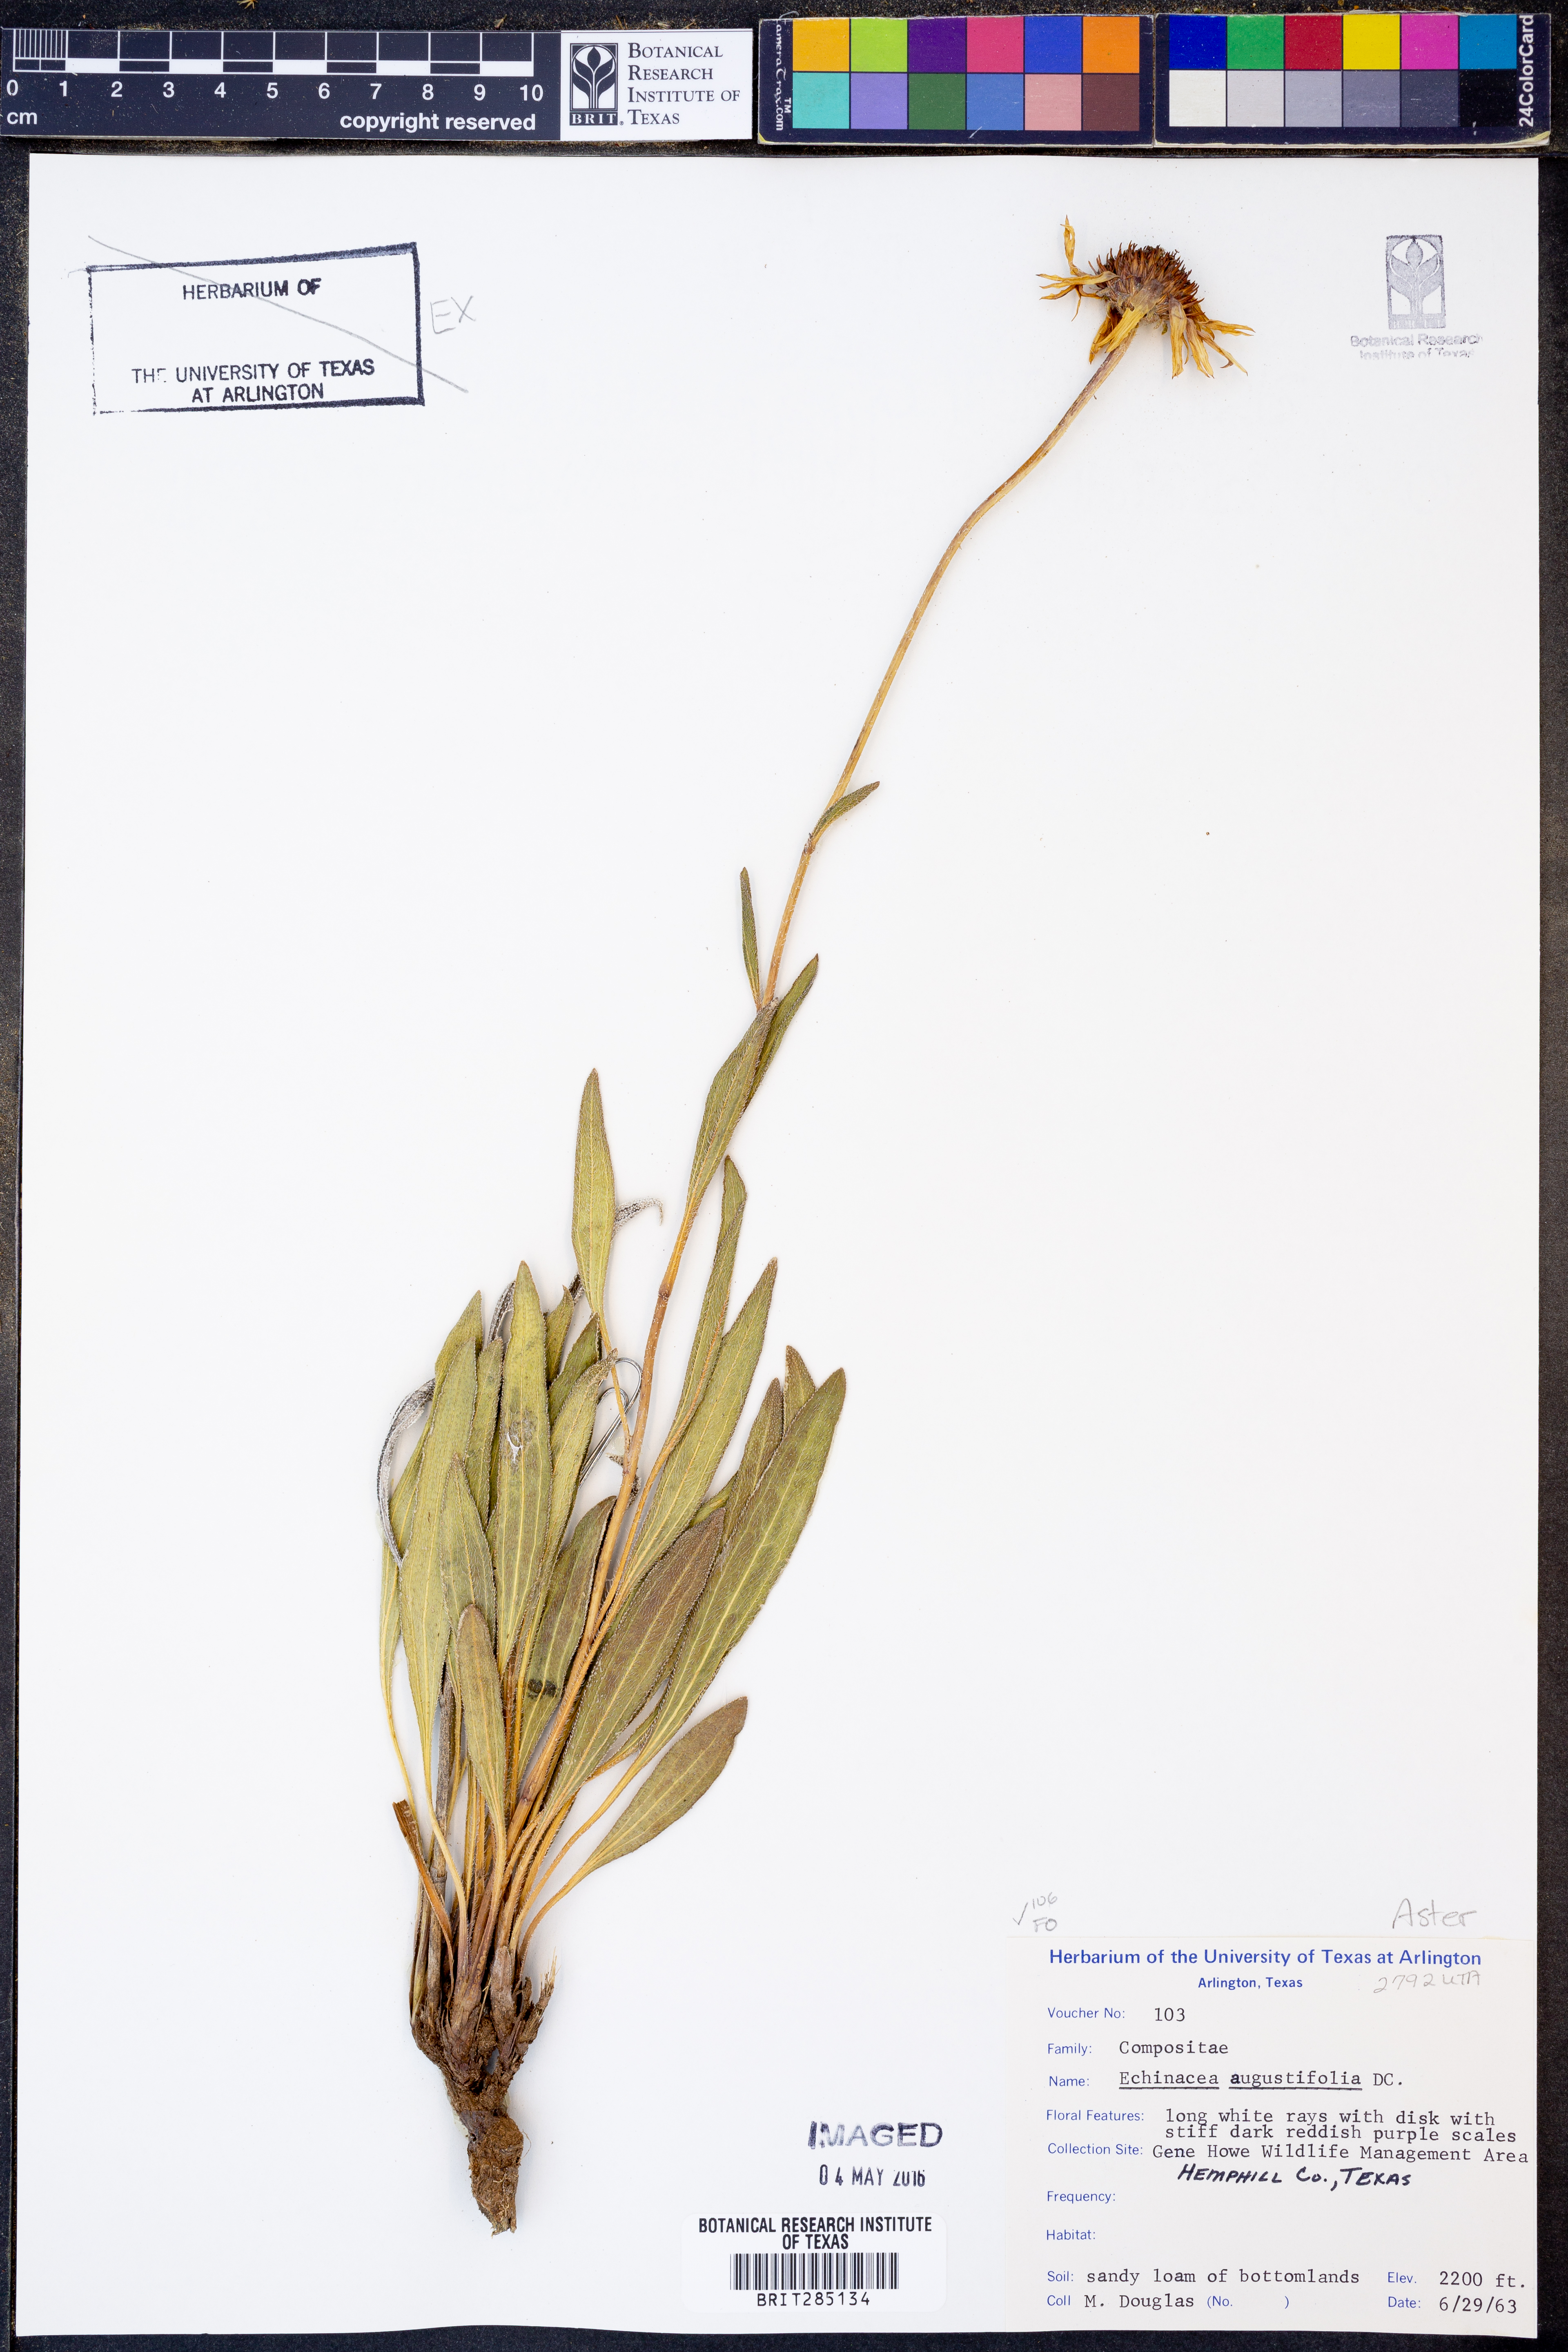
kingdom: Plantae
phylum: Tracheophyta
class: Magnoliopsida
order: Asterales
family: Asteraceae
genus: Echinacea
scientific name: Echinacea angustifolia
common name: Black-sampson echinacea
